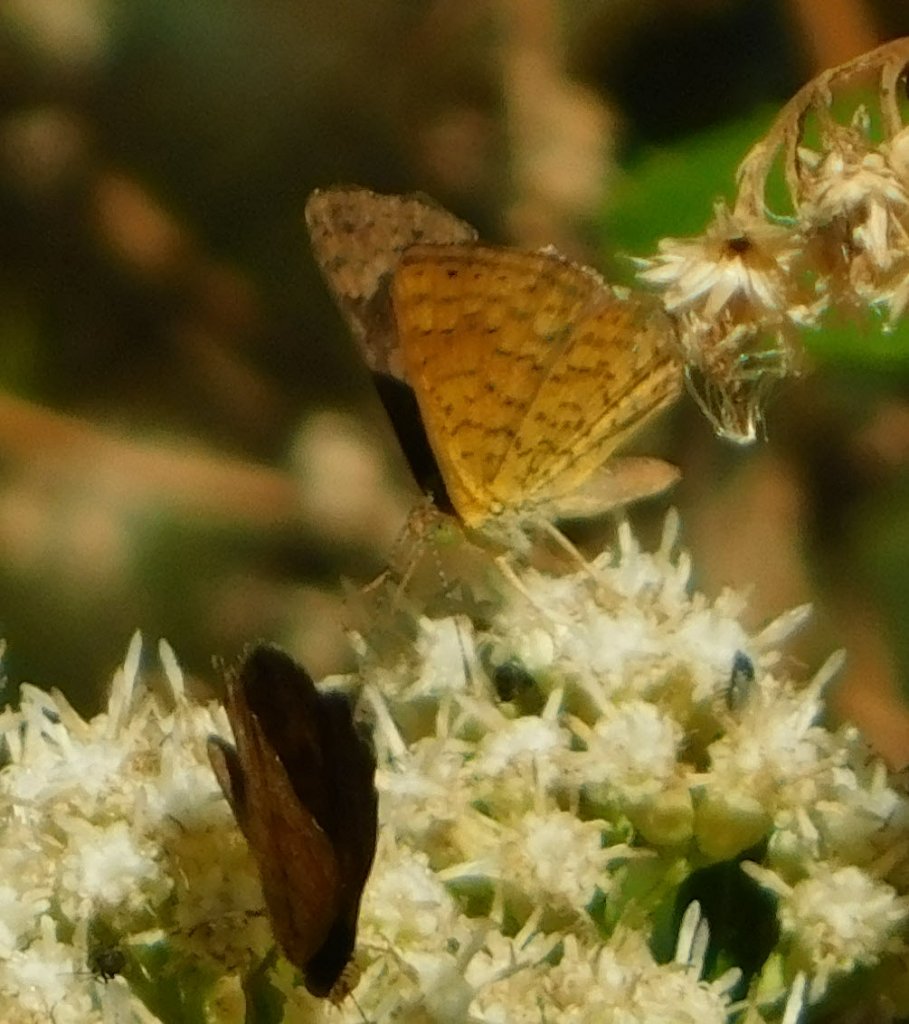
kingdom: Animalia
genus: Calephelis
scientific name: Calephelis nemesis
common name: Fatal Metalmark
